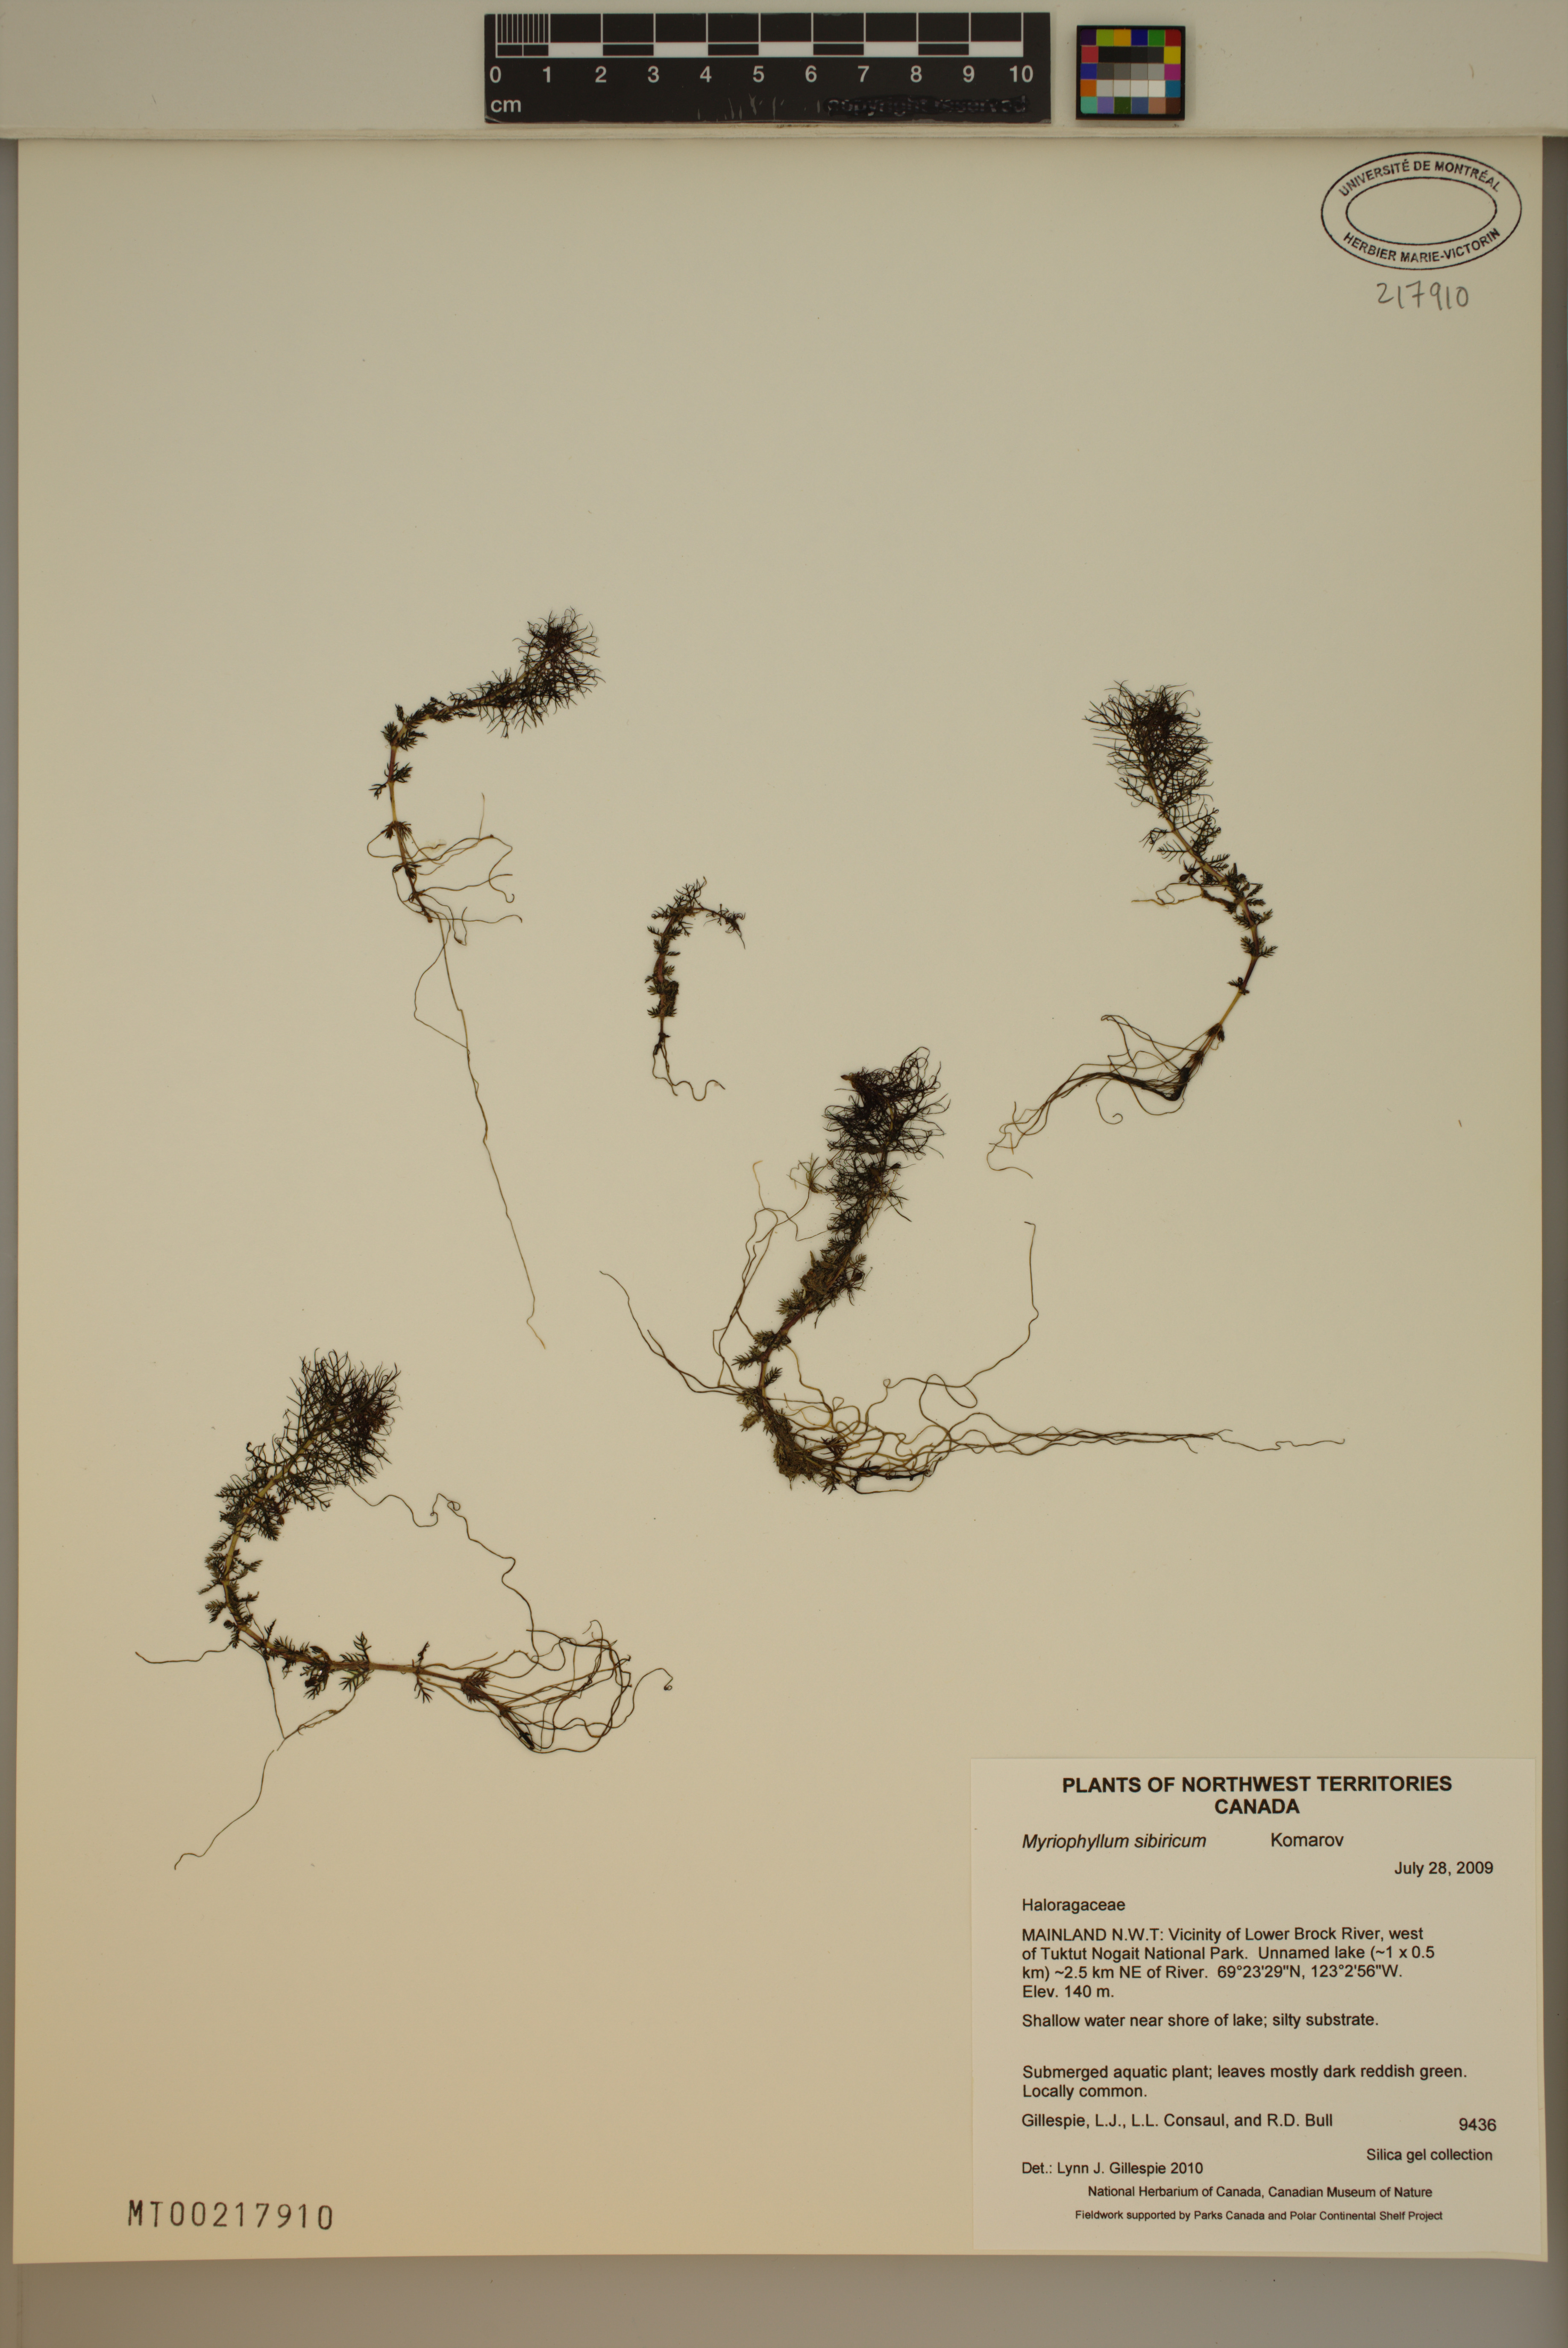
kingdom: Plantae
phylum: Tracheophyta
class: Magnoliopsida
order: Saxifragales
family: Haloragaceae
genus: Myriophyllum
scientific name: Myriophyllum sibiricum
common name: Siberian water-milfoil
